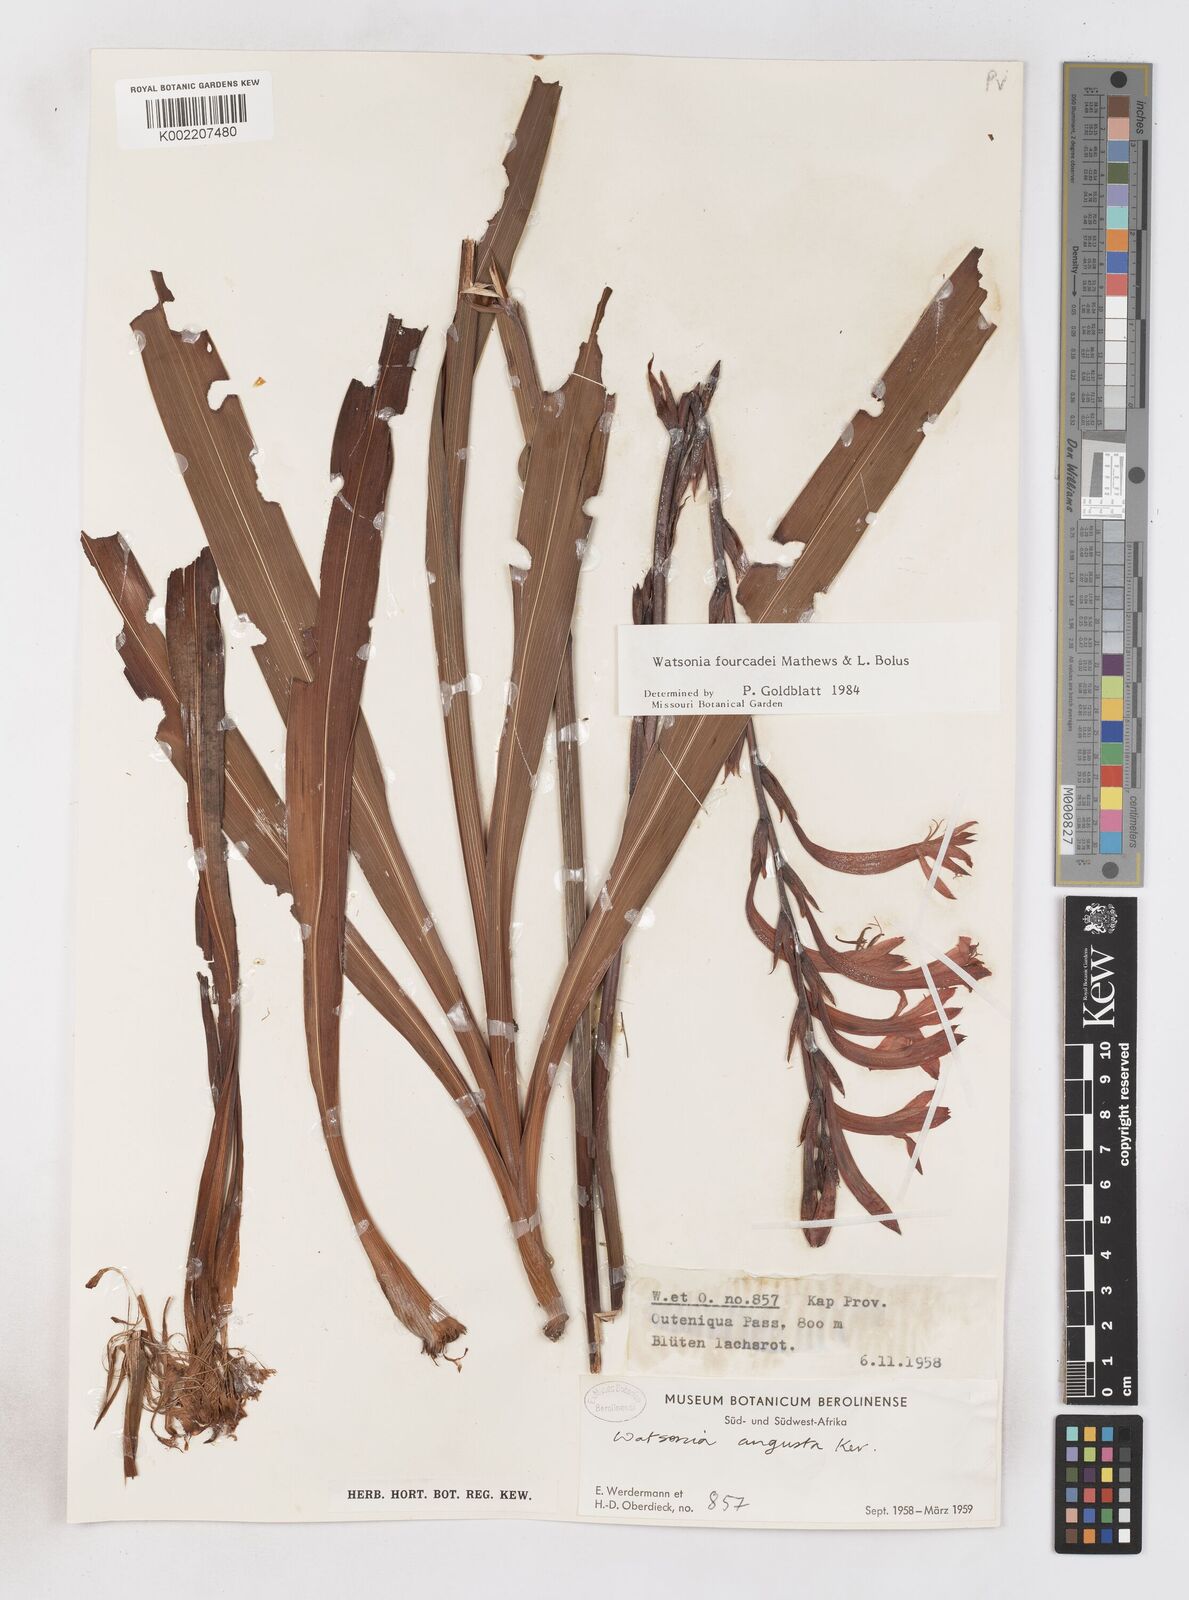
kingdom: Plantae
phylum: Tracheophyta
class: Liliopsida
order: Asparagales
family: Iridaceae
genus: Watsonia
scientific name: Watsonia fourcadei
